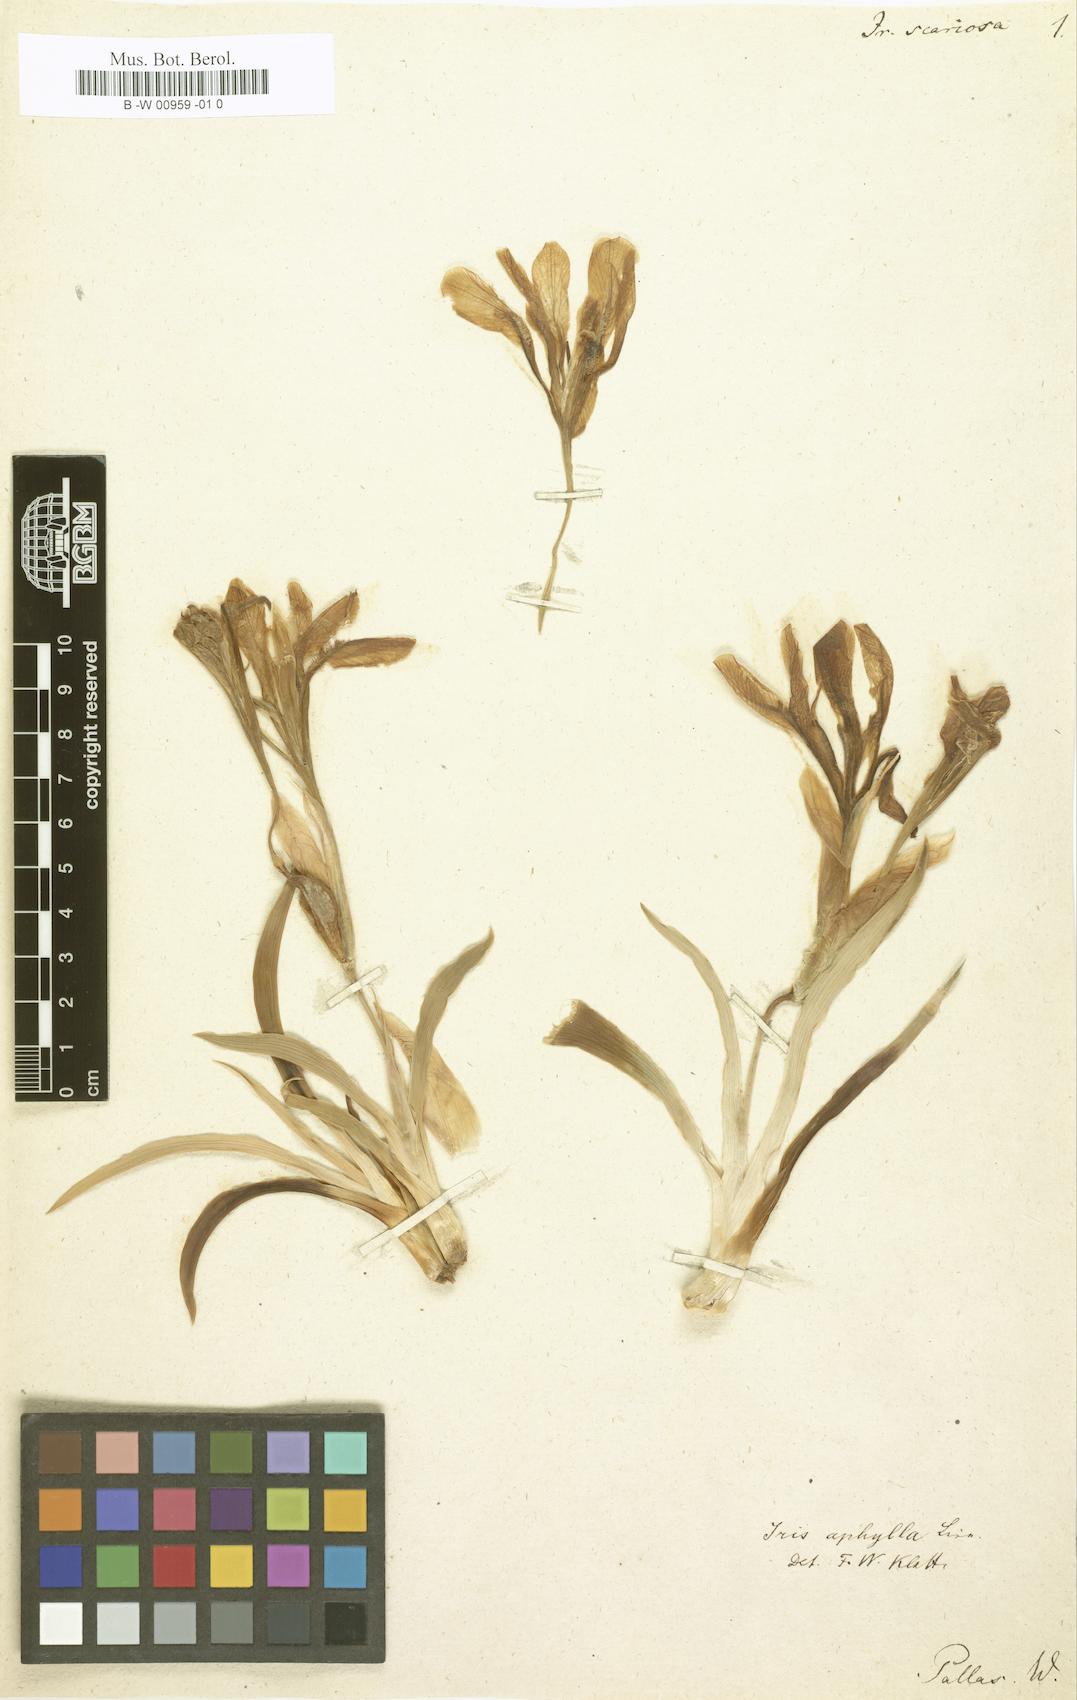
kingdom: Plantae
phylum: Tracheophyta
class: Liliopsida
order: Asparagales
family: Iridaceae
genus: Iris
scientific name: Iris scariosa
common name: Membrane-bract iris
